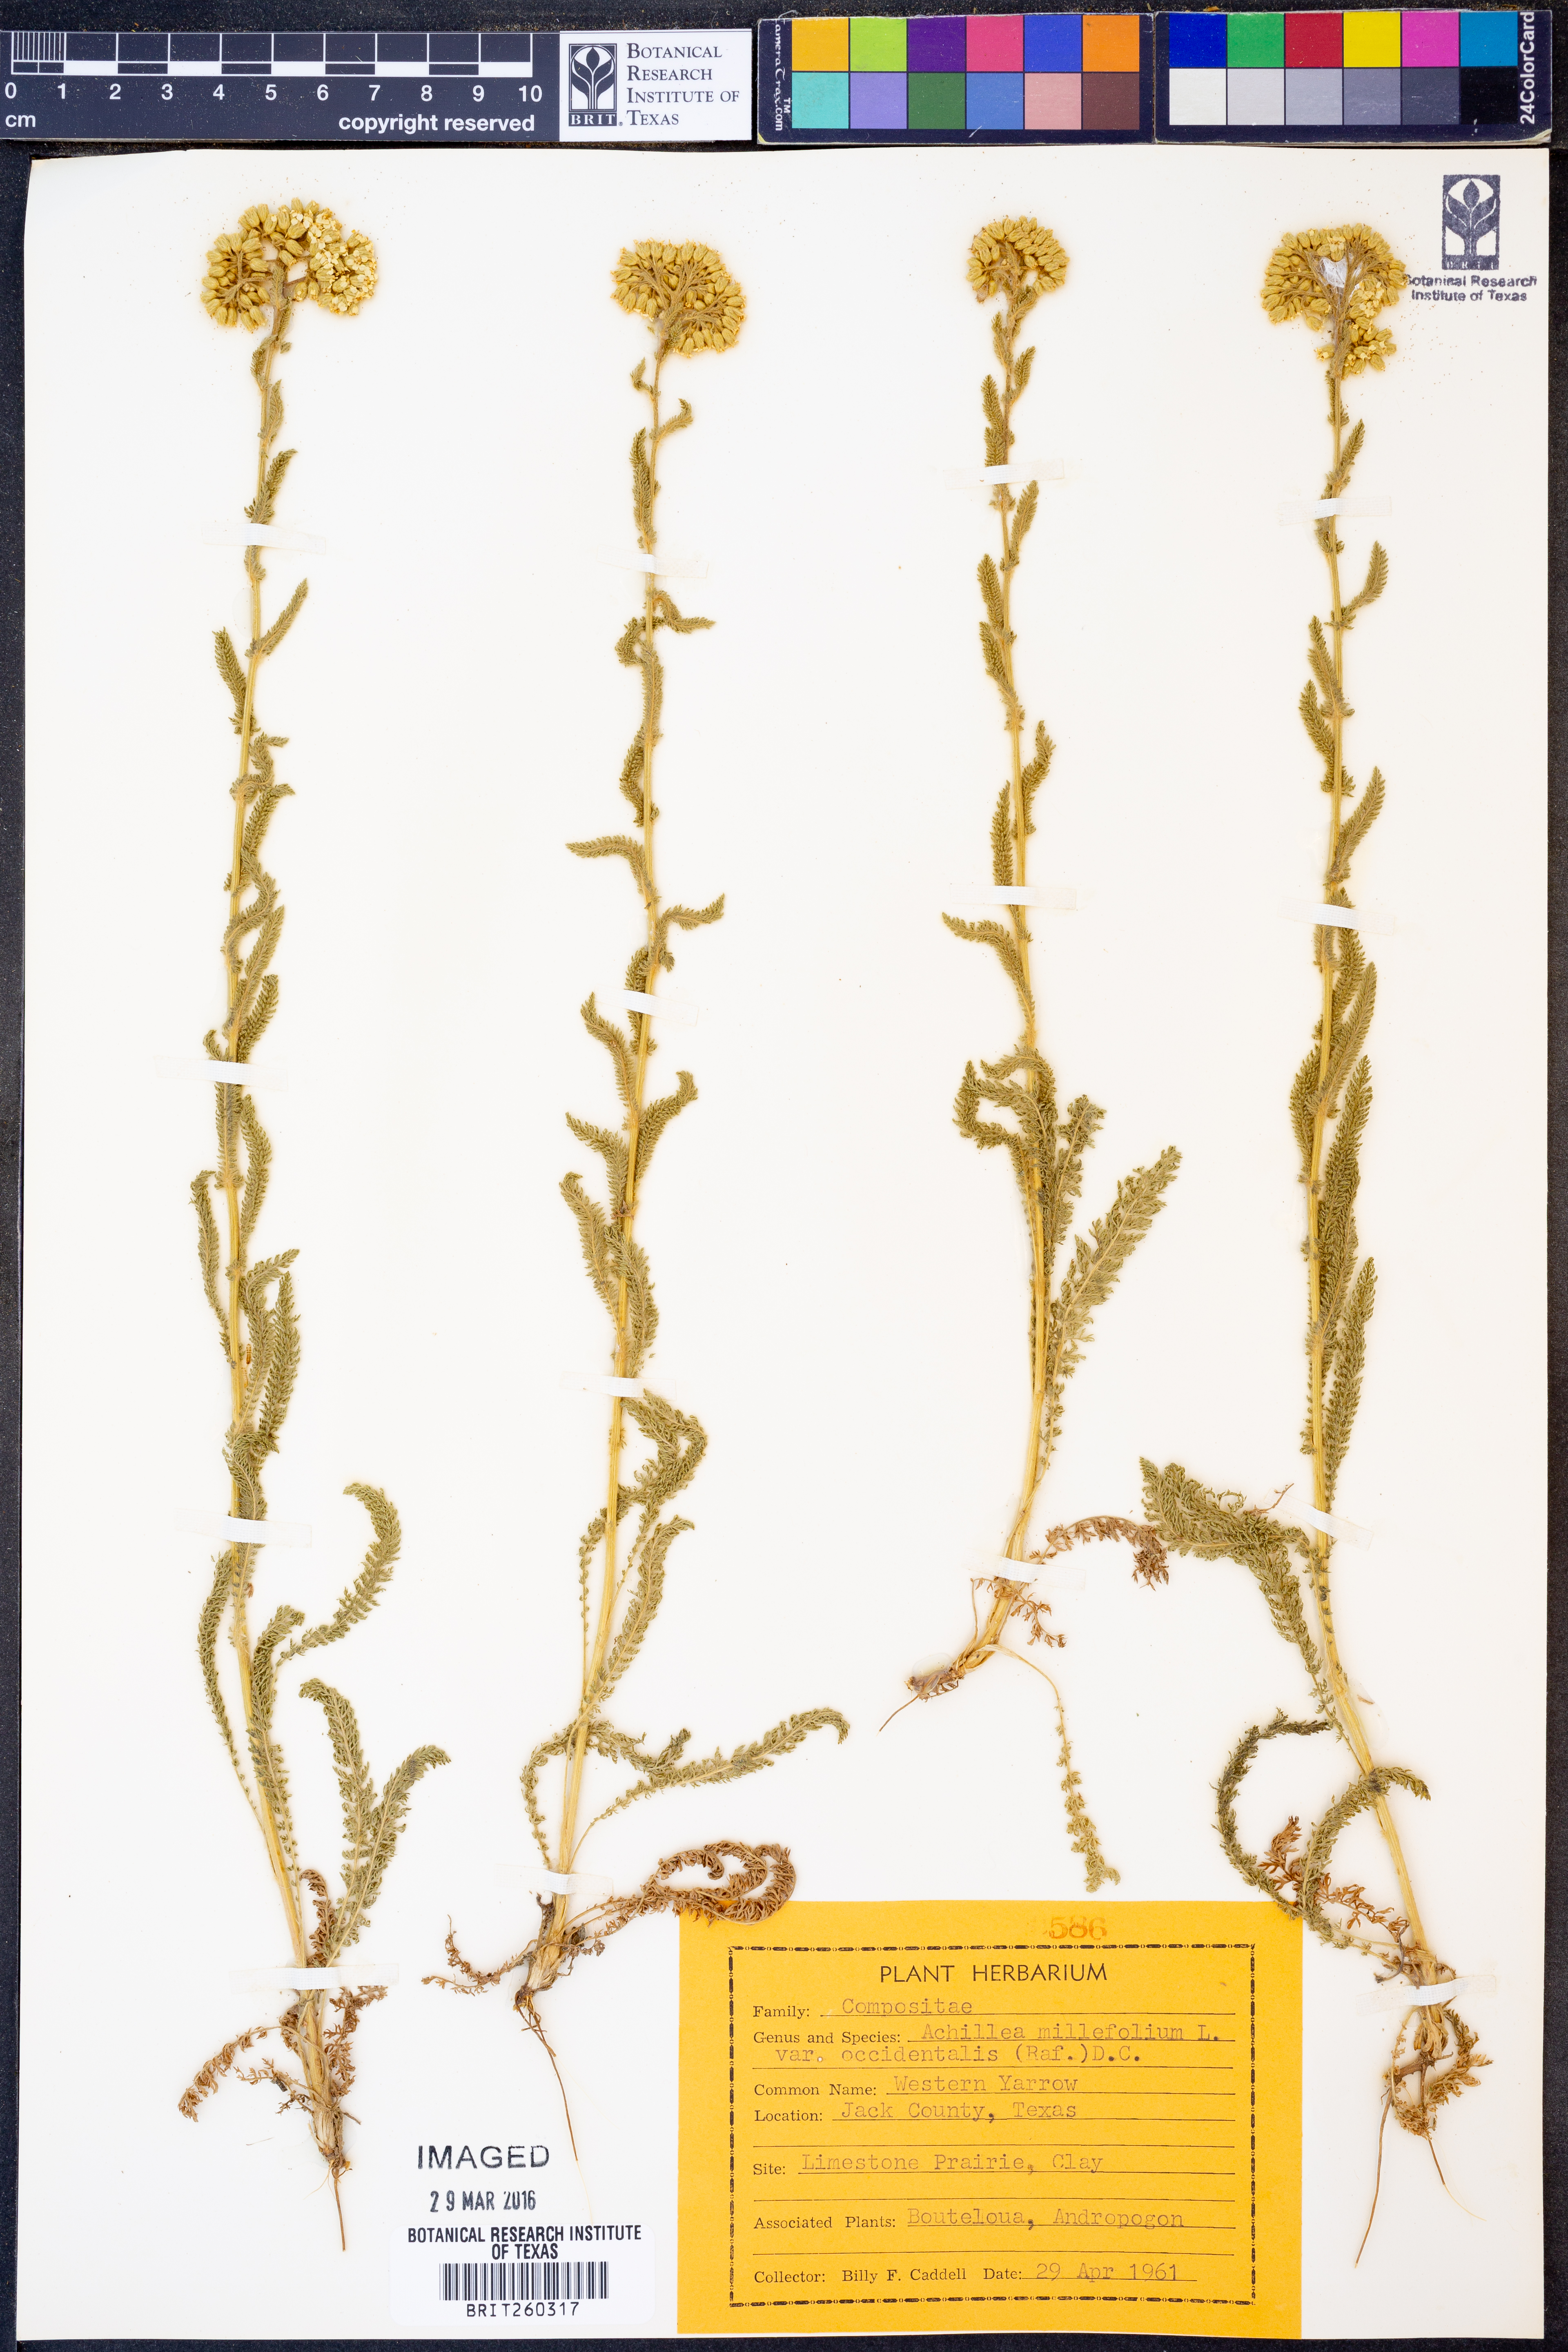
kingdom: Plantae
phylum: Tracheophyta
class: Magnoliopsida
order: Asterales
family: Asteraceae
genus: Achillea
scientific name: Achillea millefolium
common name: Yarrow
